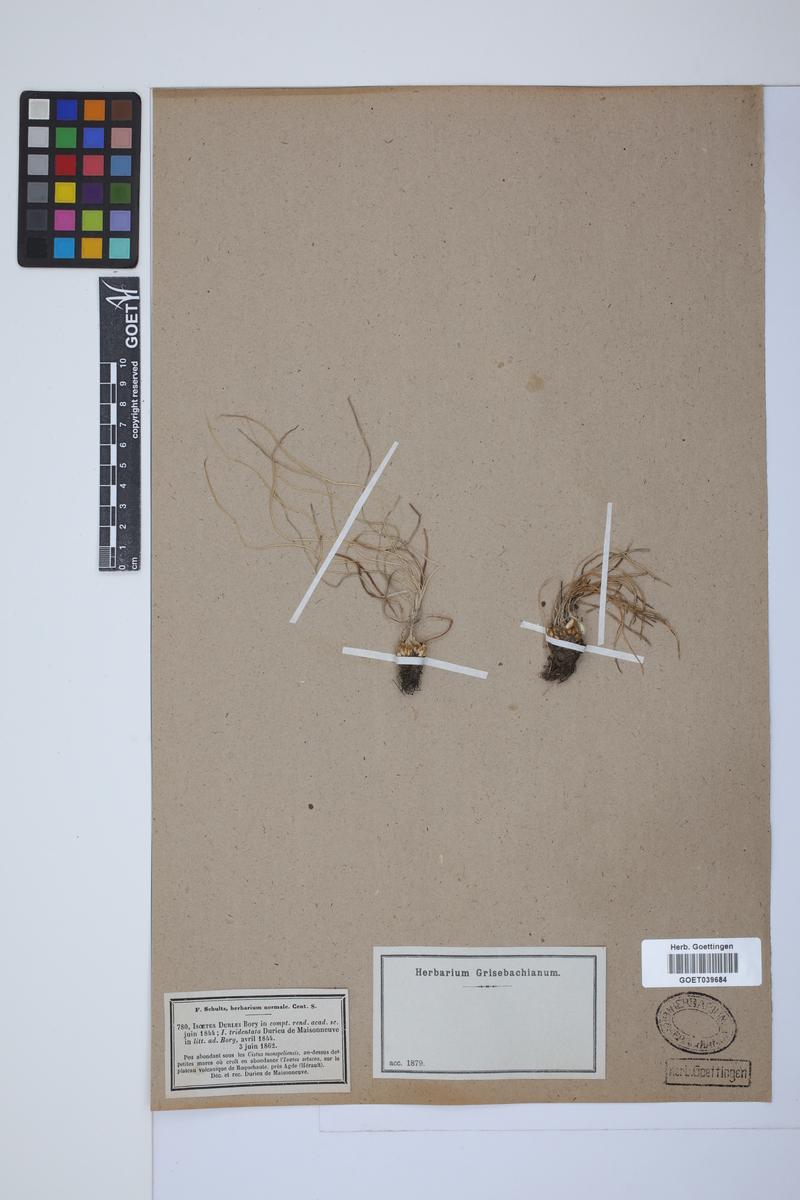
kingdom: Plantae
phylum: Tracheophyta
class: Lycopodiopsida
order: Isoetales
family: Isoetaceae
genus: Isoetes
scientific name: Isoetes duriei
